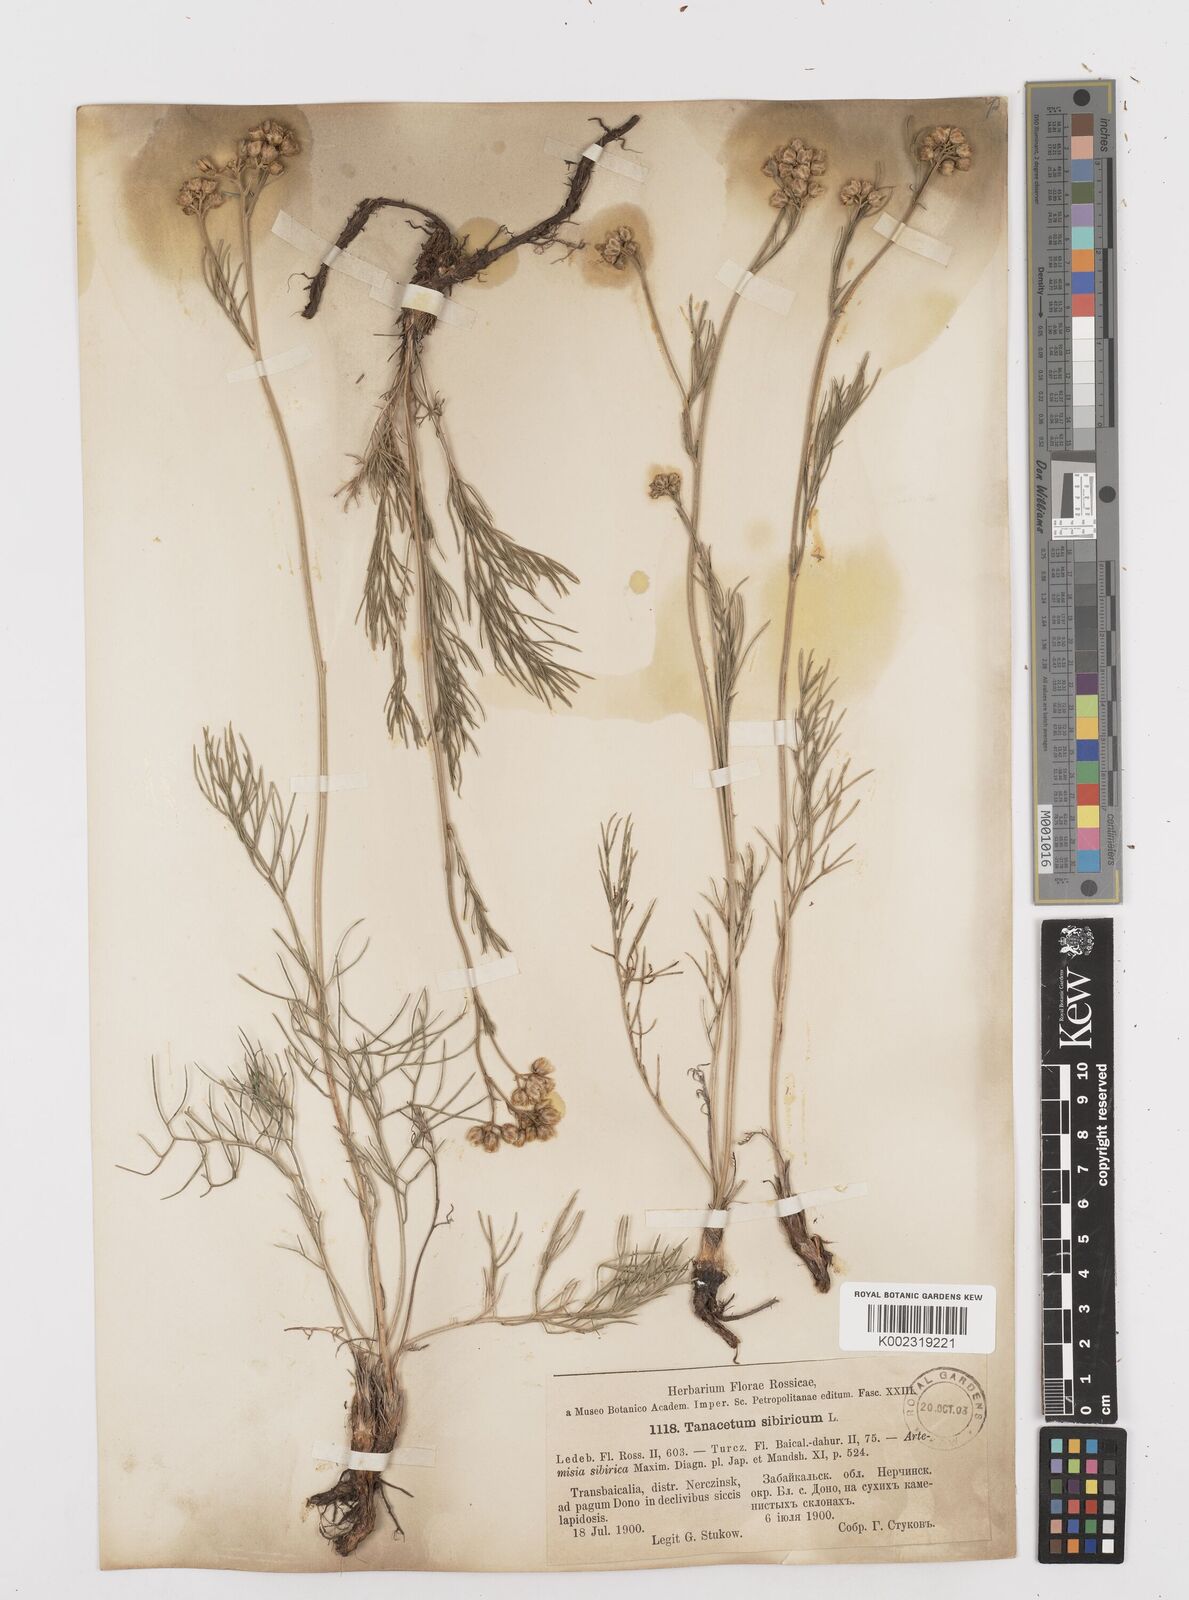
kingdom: Plantae
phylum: Tracheophyta
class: Magnoliopsida
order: Asterales
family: Asteraceae
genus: Filifolium
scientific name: Filifolium sibiricum
